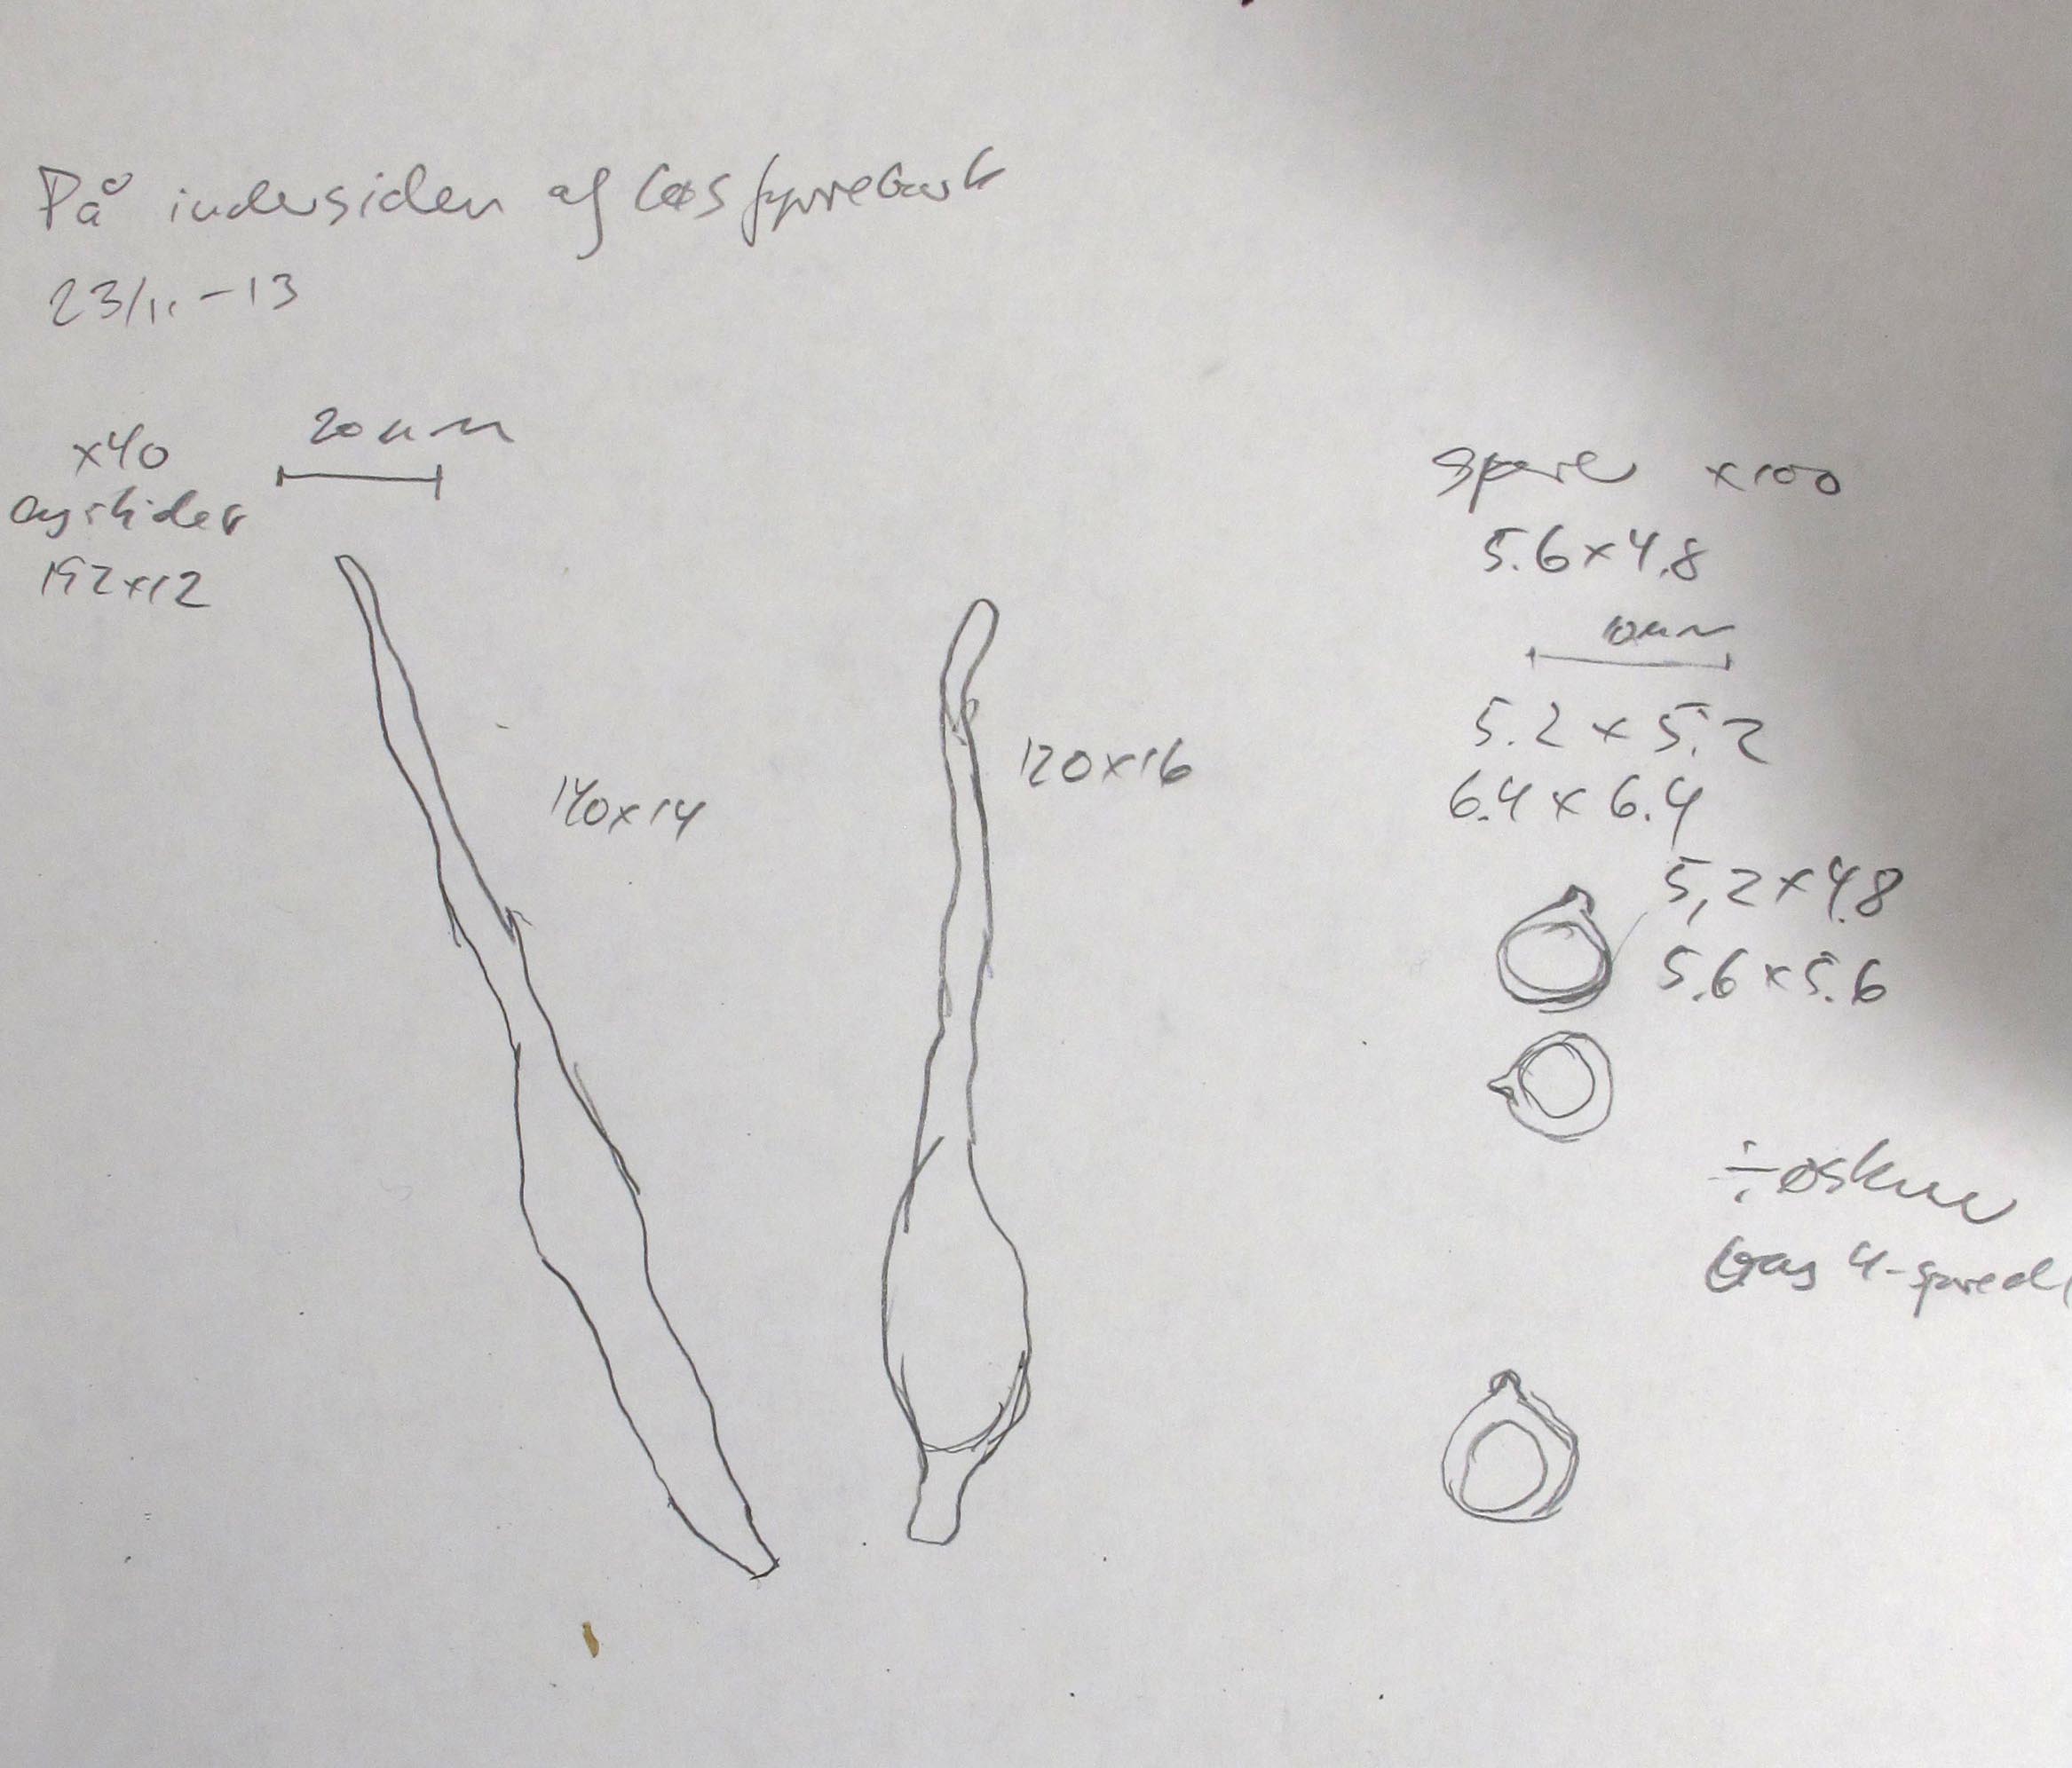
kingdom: Fungi
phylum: Basidiomycota
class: Agaricomycetes
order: Russulales
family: Peniophoraceae
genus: Gloiothele
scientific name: Gloiothele citrina
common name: citronskorpe
